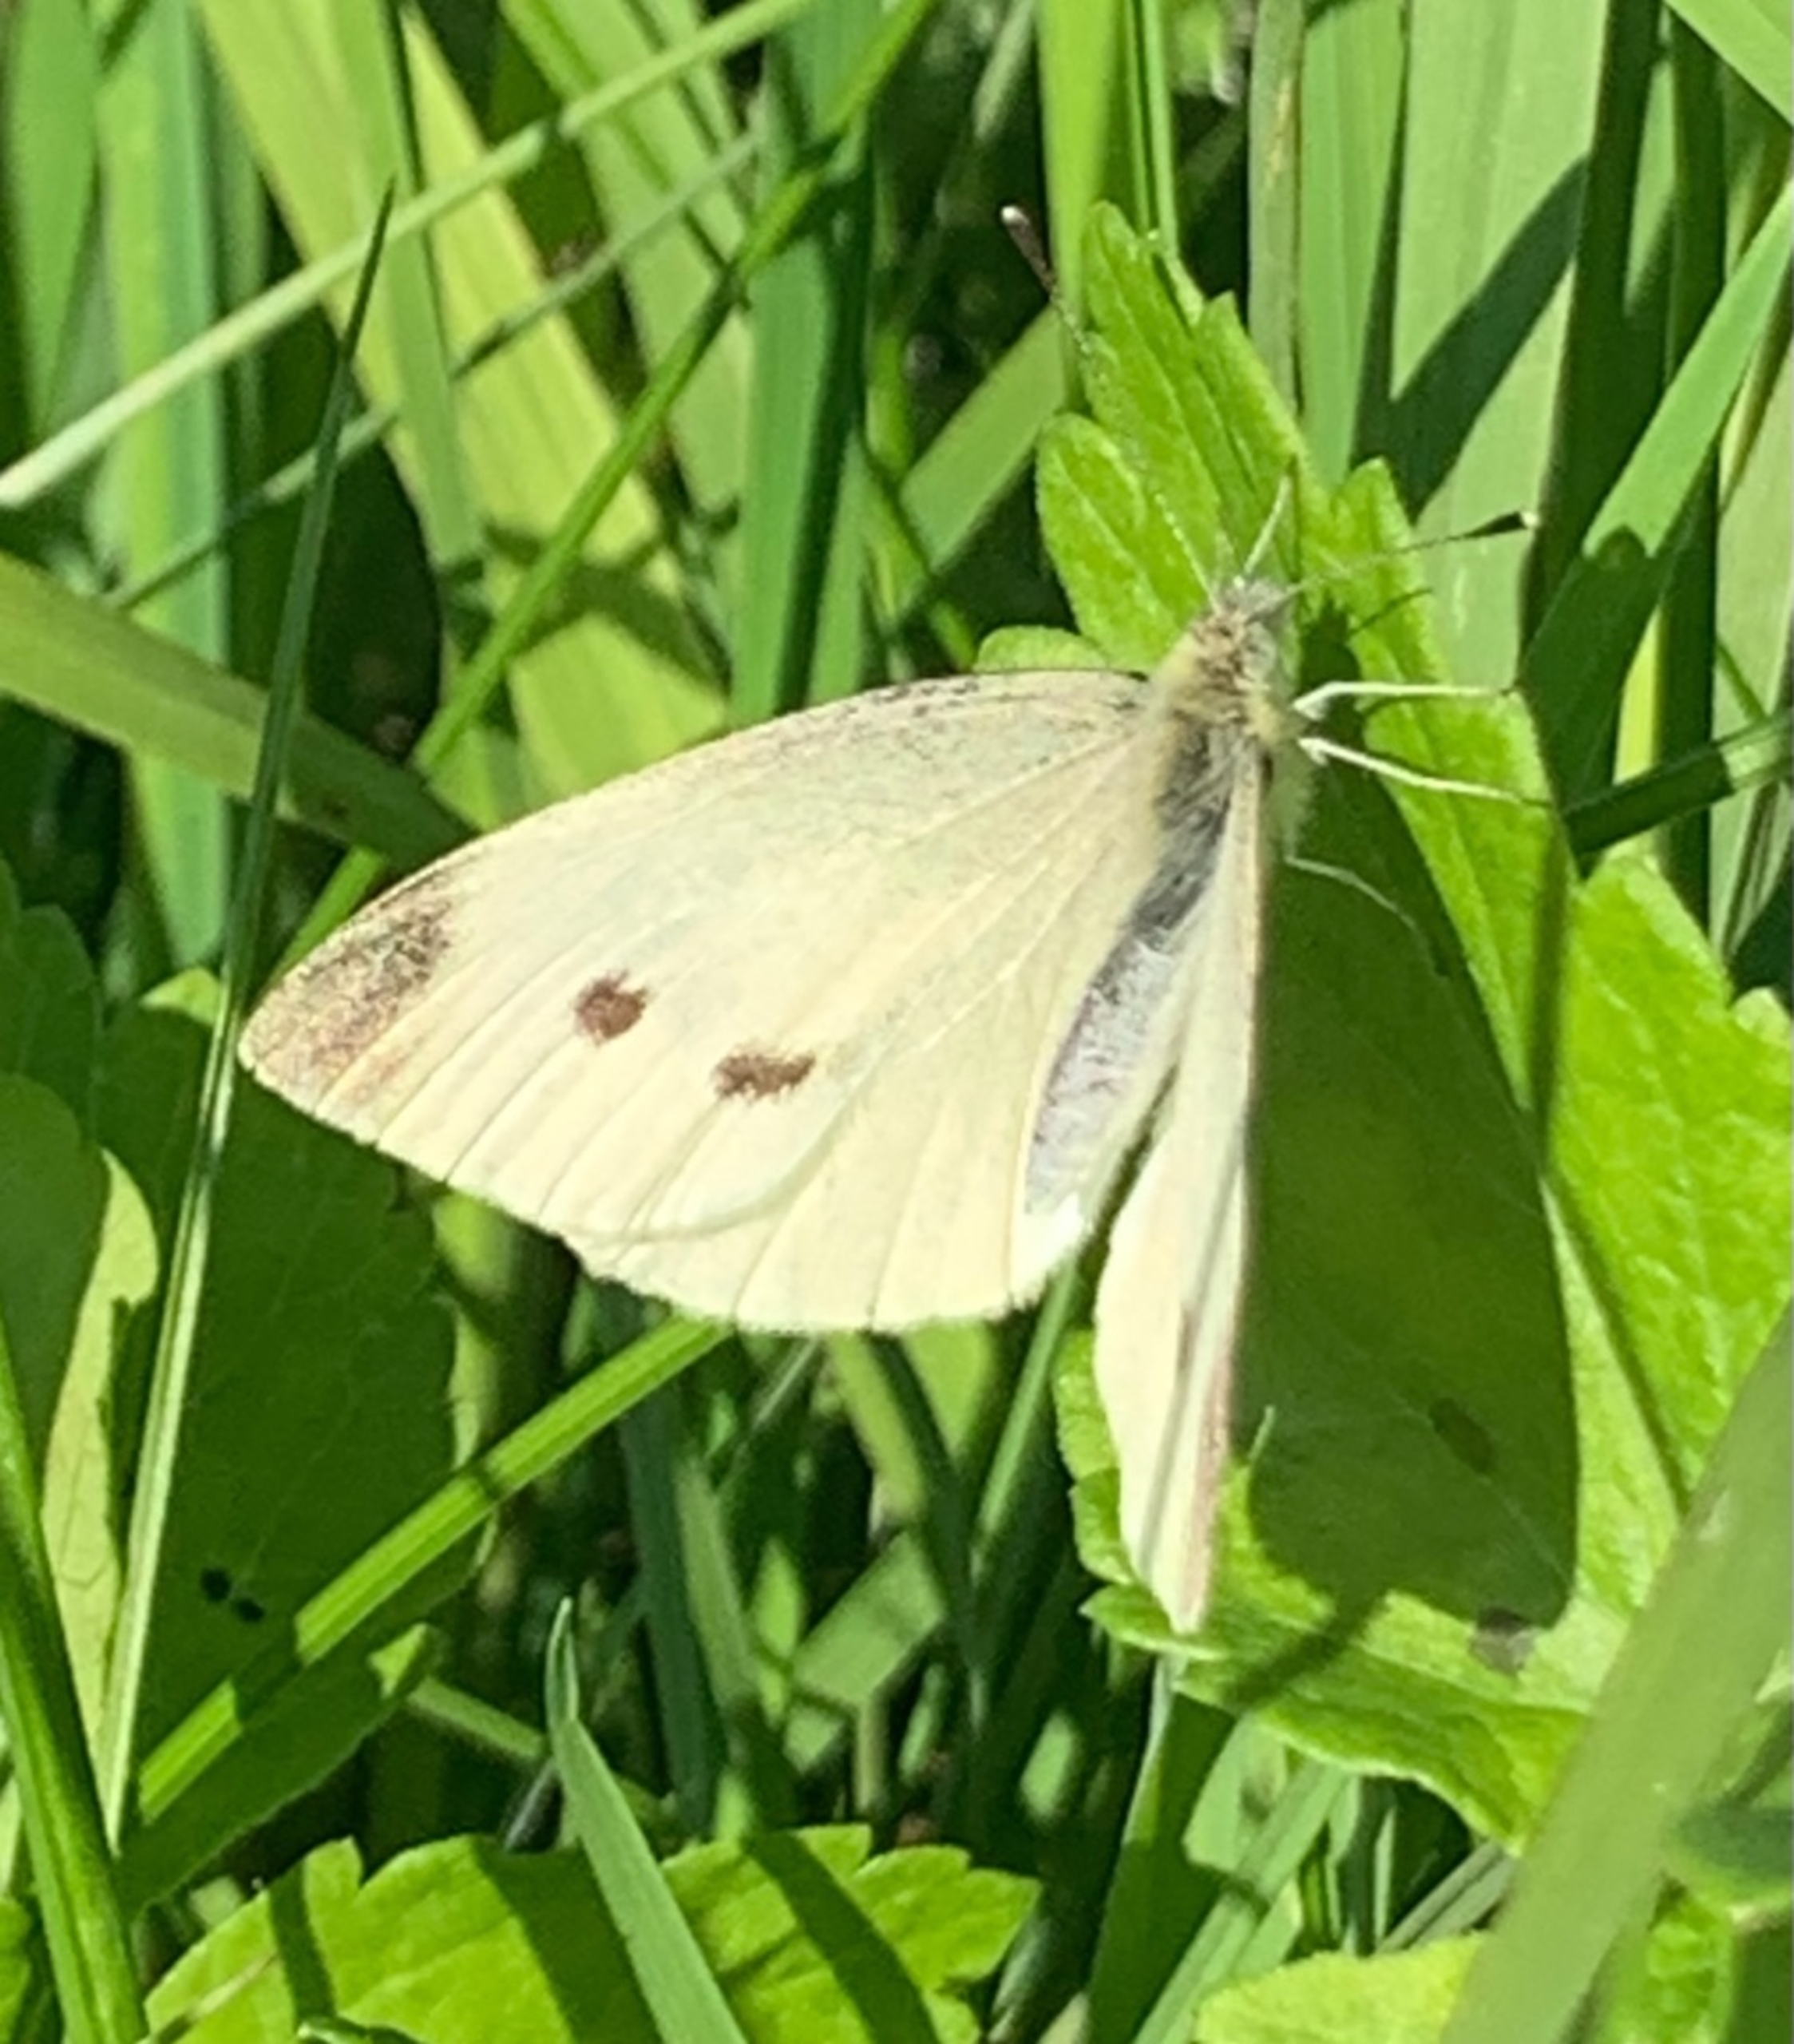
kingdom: Animalia
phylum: Arthropoda
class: Insecta
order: Lepidoptera
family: Pieridae
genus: Pieris
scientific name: Pieris rapae
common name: Lille kålsommerfugl
